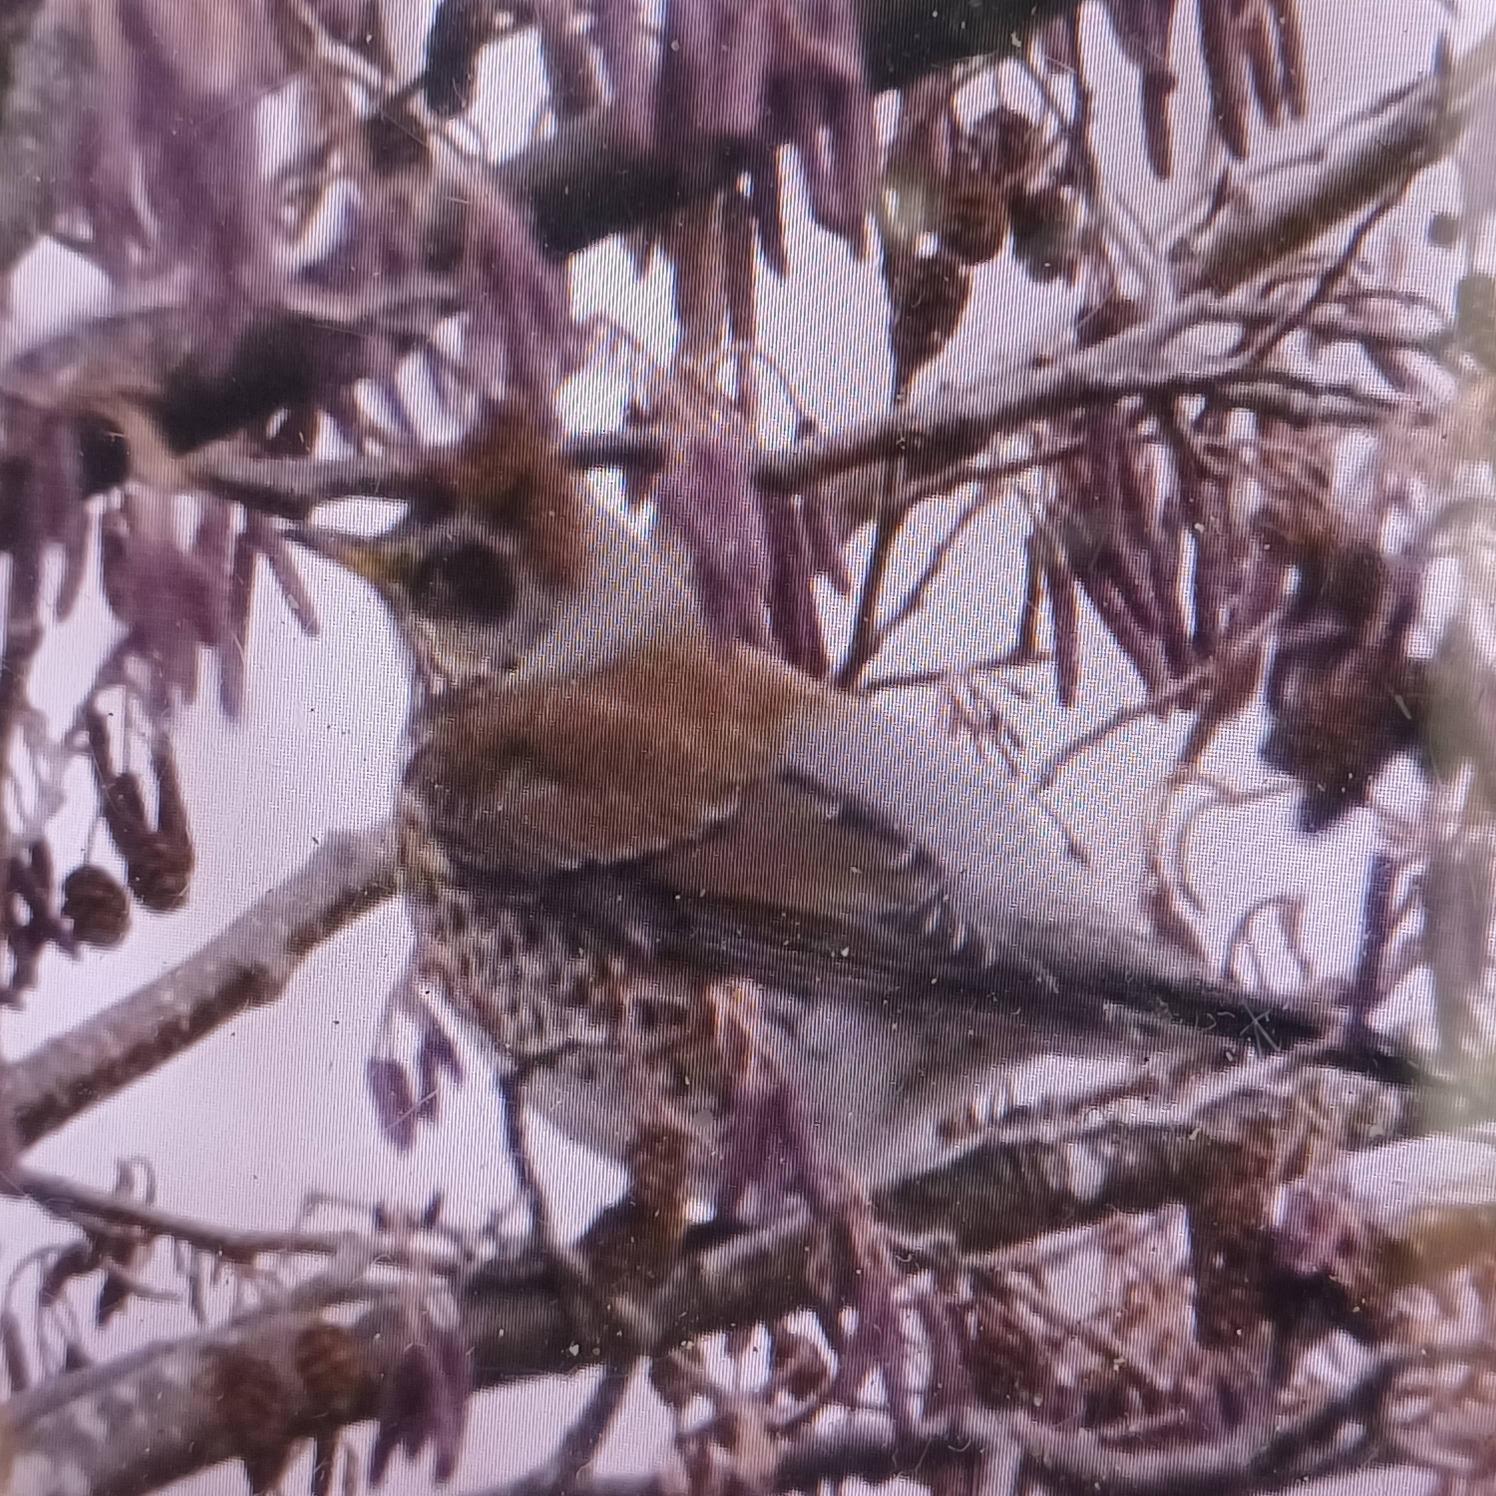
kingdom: Animalia
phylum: Chordata
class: Aves
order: Passeriformes
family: Turdidae
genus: Turdus
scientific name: Turdus pilaris
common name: Sjagger
